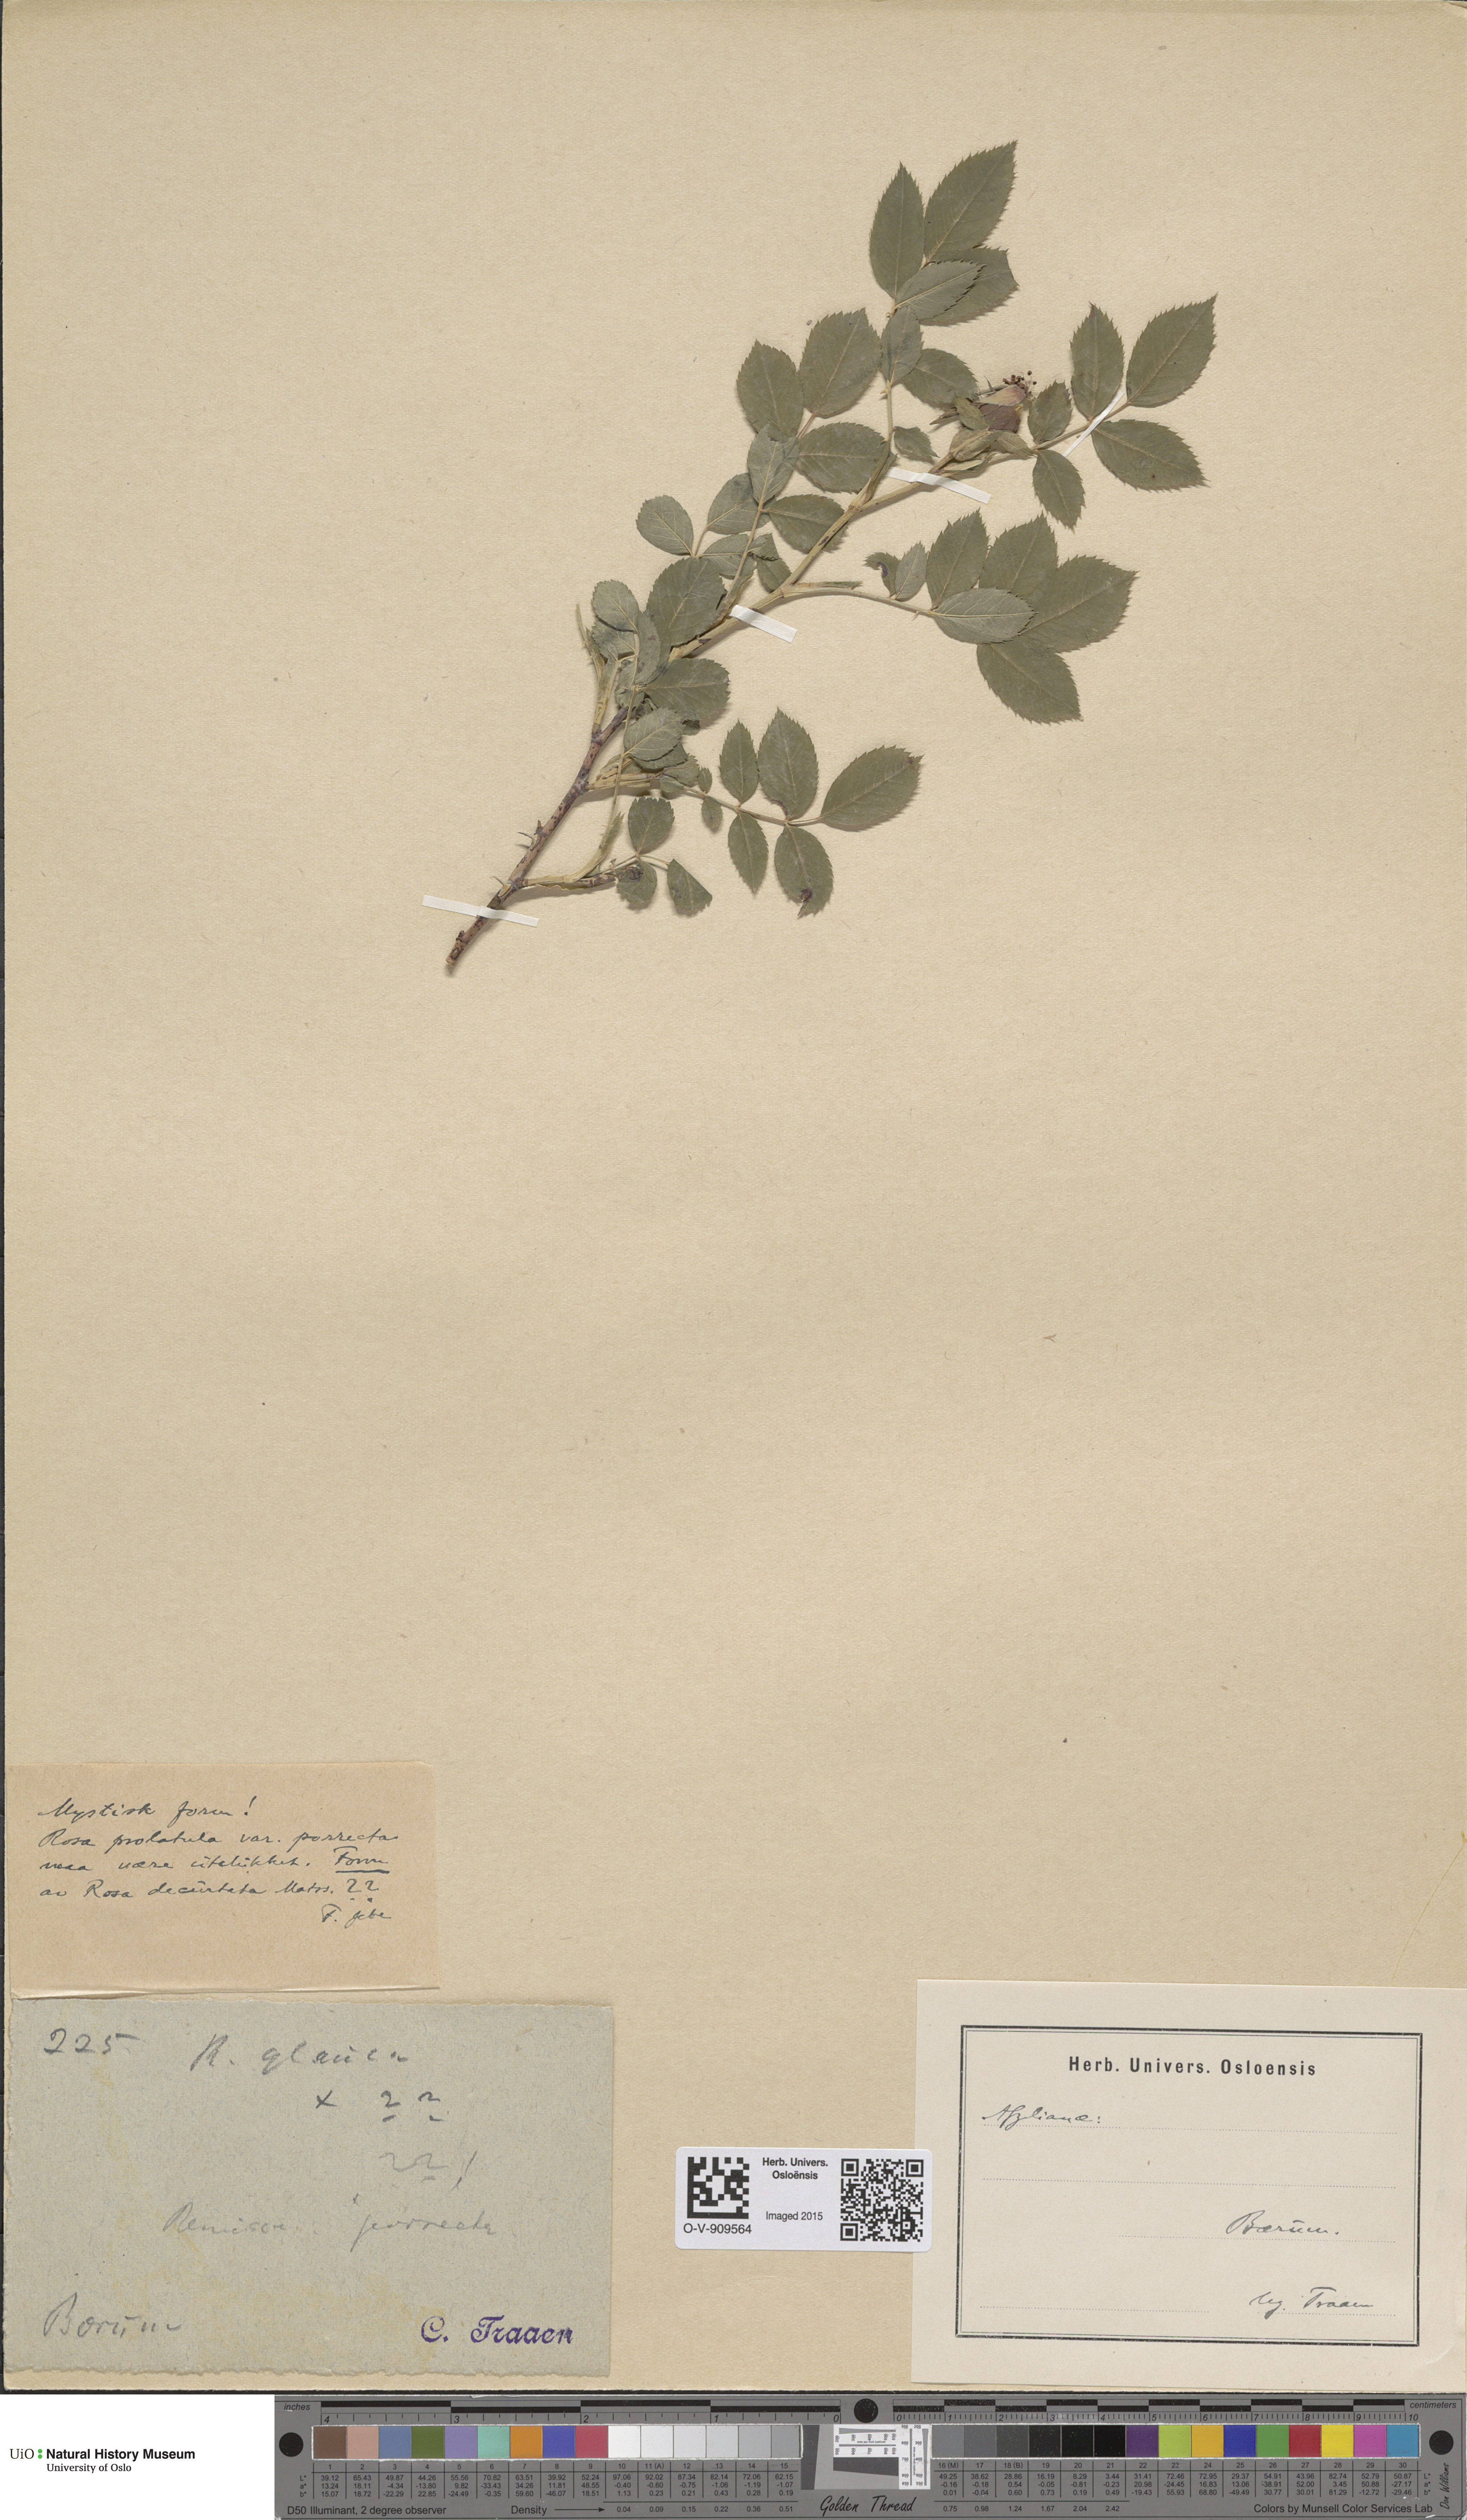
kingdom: Plantae
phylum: Tracheophyta
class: Magnoliopsida
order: Rosales
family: Rosaceae
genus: Rosa
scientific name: Rosa
